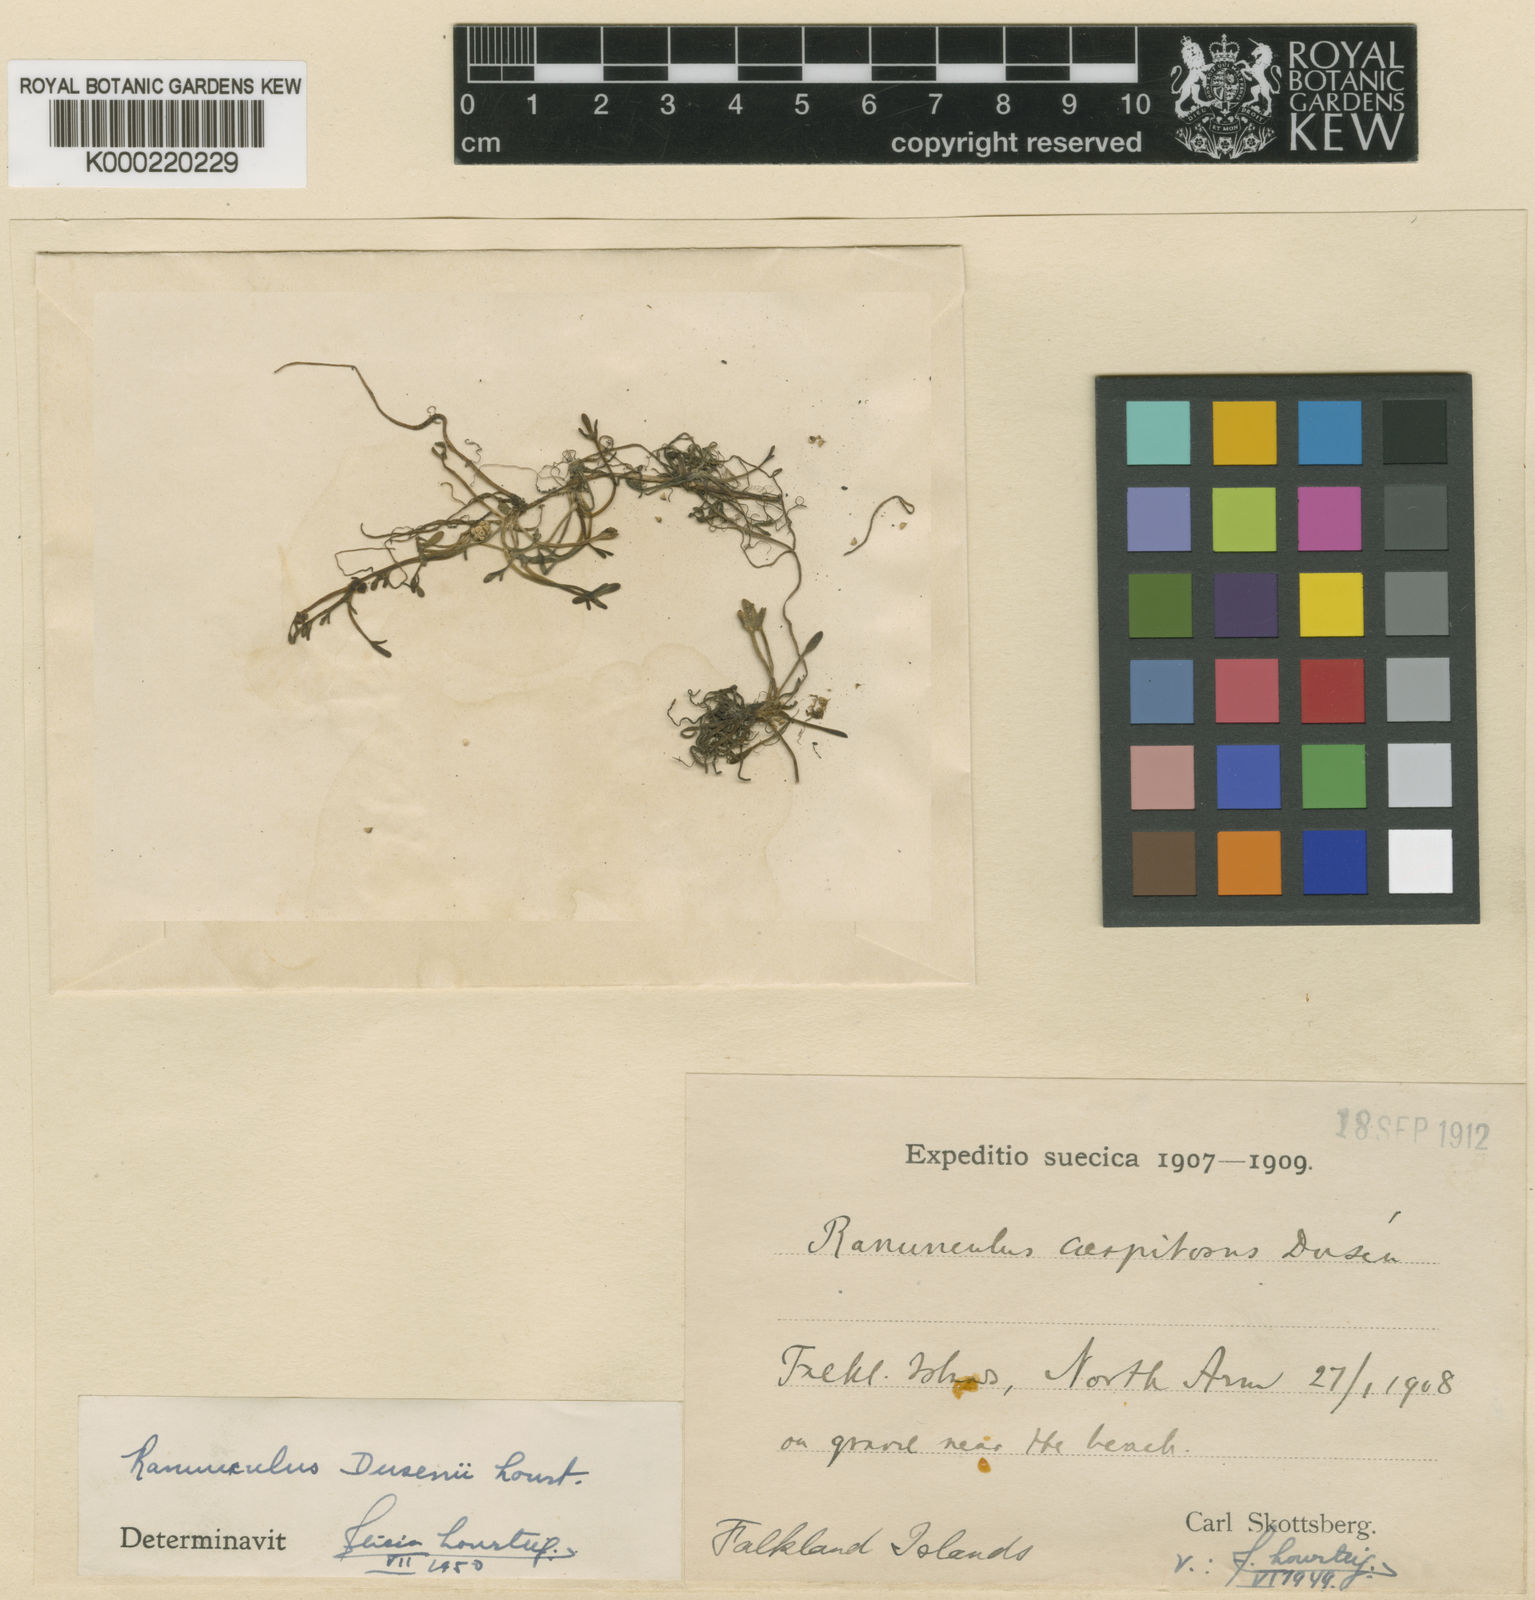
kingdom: Plantae
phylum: Tracheophyta
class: Magnoliopsida
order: Ranunculales
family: Ranunculaceae
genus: Ranunculus
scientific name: Ranunculus pseudotrullifolius
